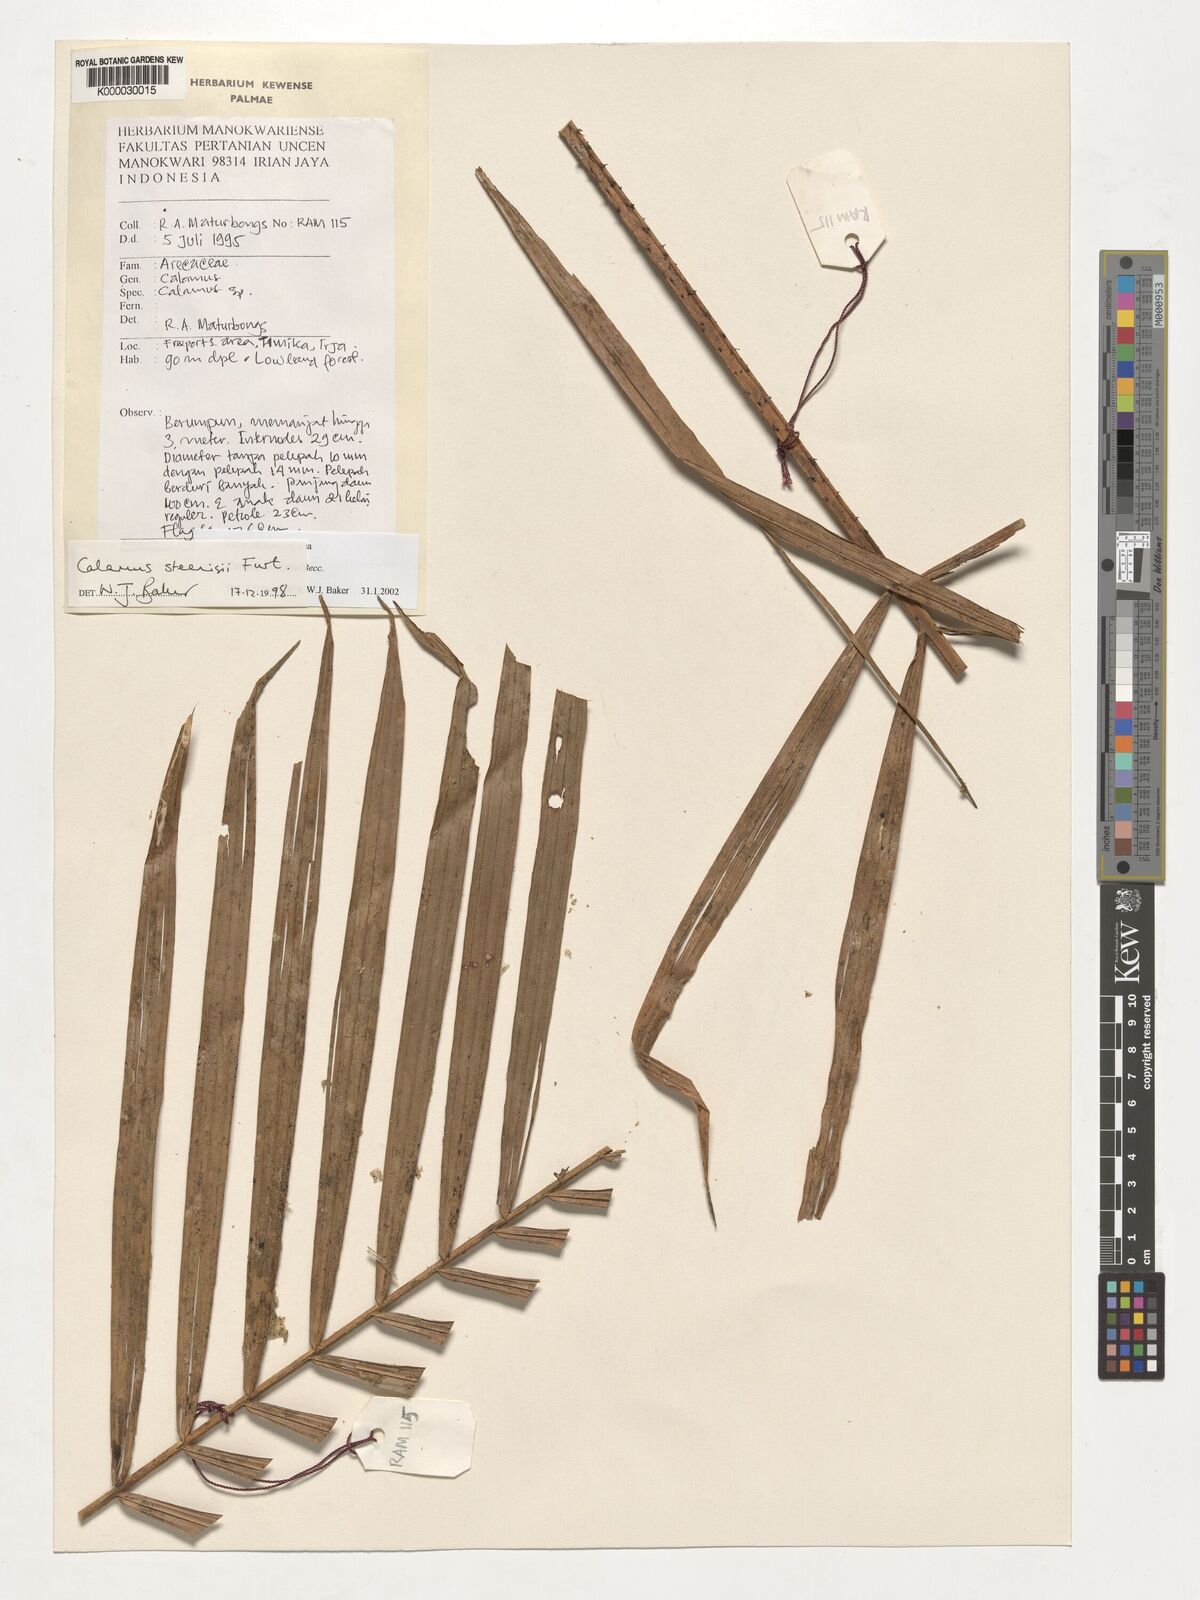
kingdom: Plantae
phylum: Tracheophyta
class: Liliopsida
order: Arecales
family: Arecaceae
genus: Calamus
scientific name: Calamus zebrinus
